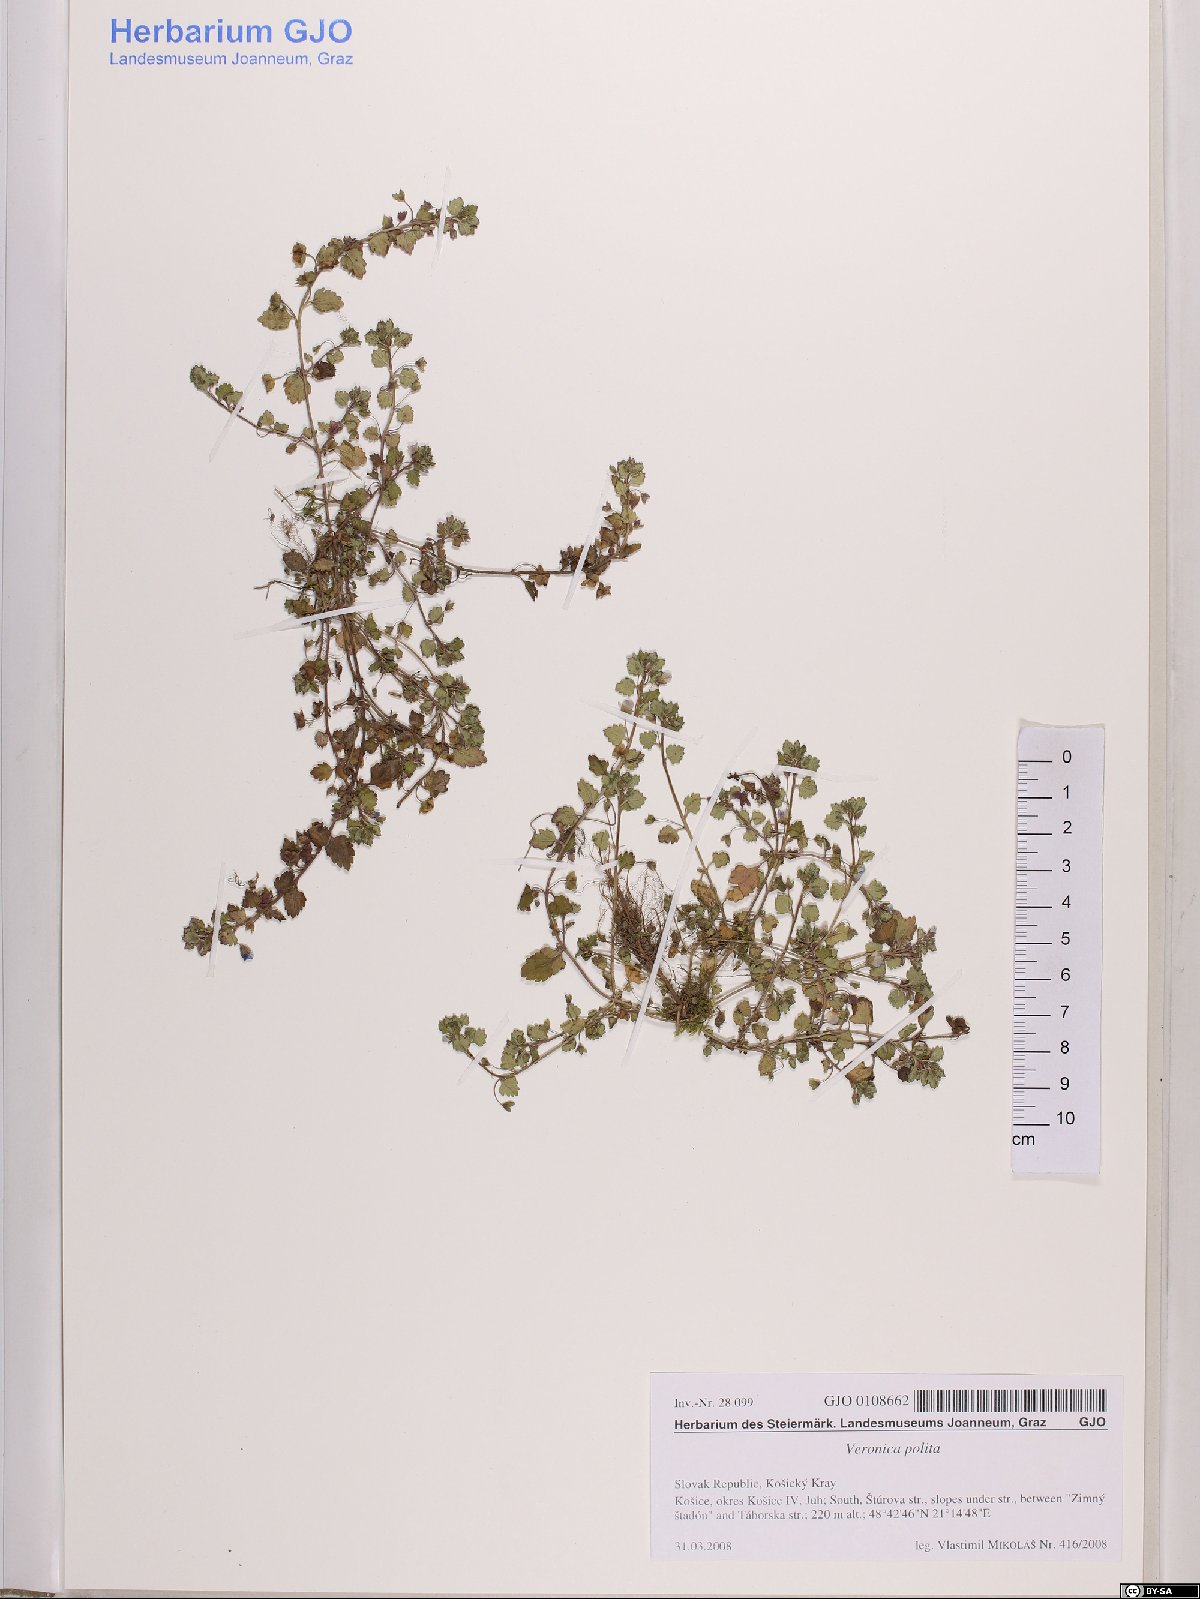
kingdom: Plantae
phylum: Tracheophyta
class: Magnoliopsida
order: Lamiales
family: Plantaginaceae
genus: Veronica
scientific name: Veronica polita
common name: Grey field-speedwell
